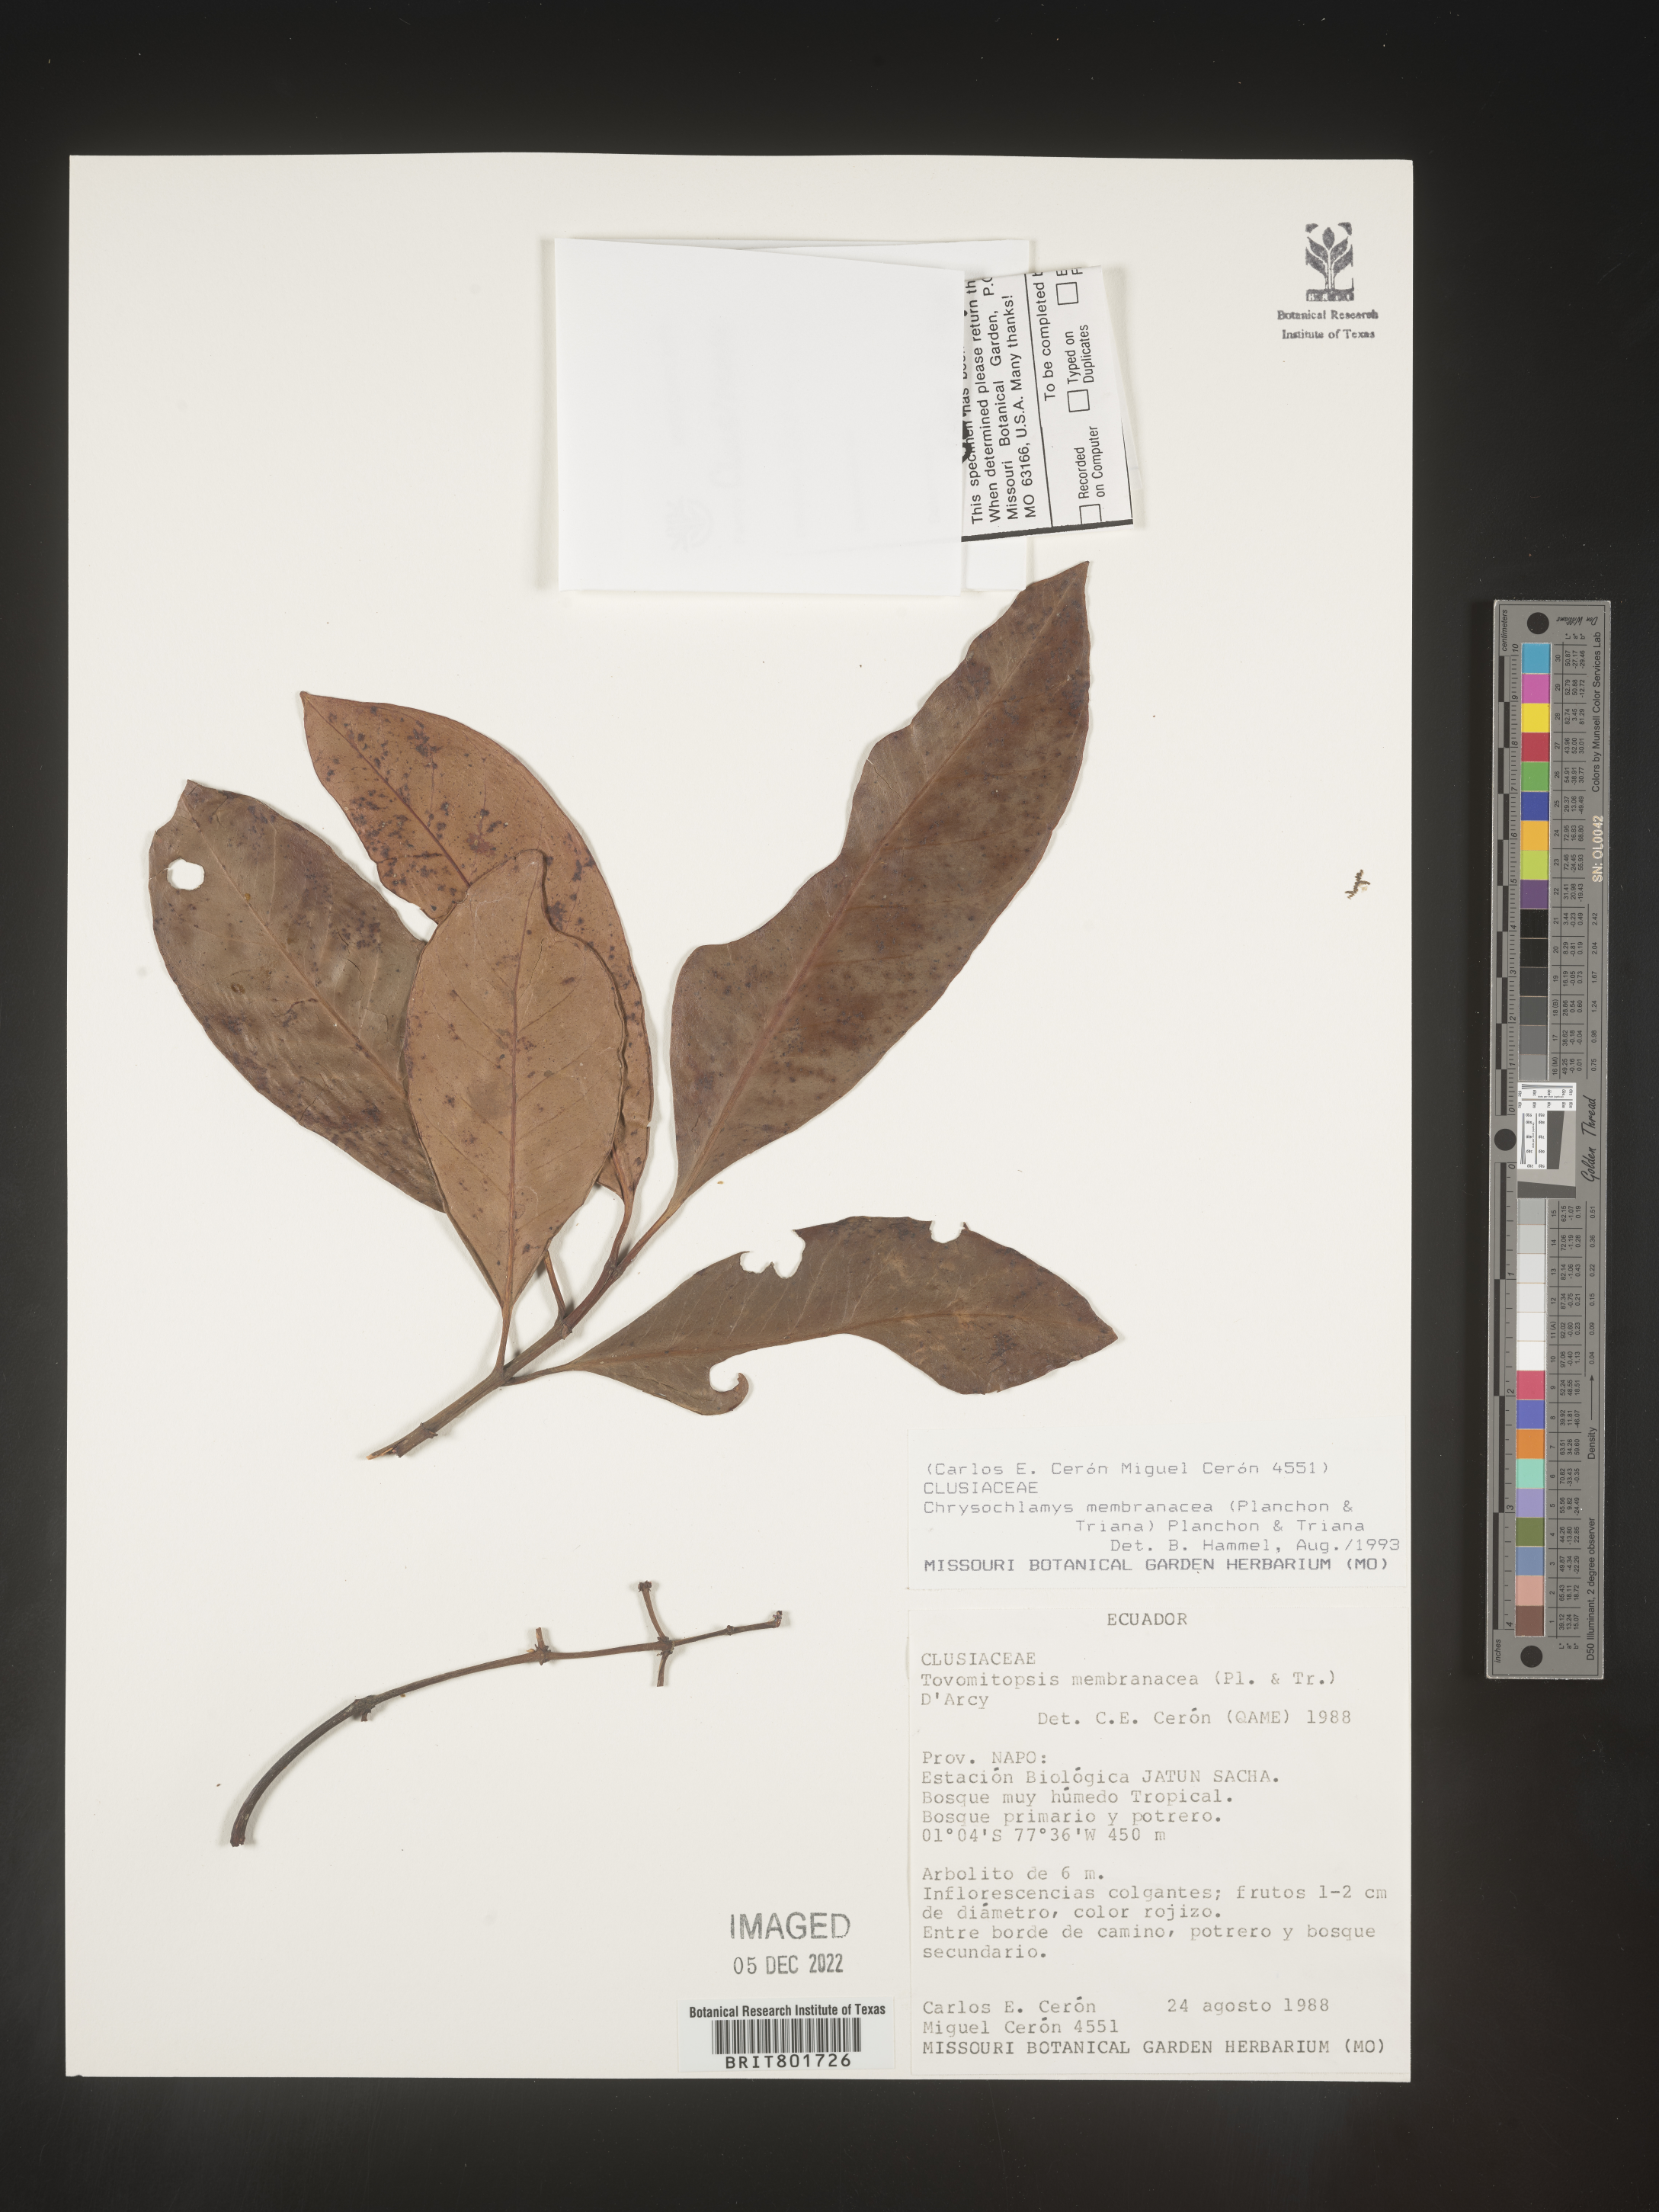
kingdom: Plantae
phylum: Tracheophyta
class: Magnoliopsida
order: Malpighiales
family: Clusiaceae
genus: Chrysochlamys
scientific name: Chrysochlamys membranacea
